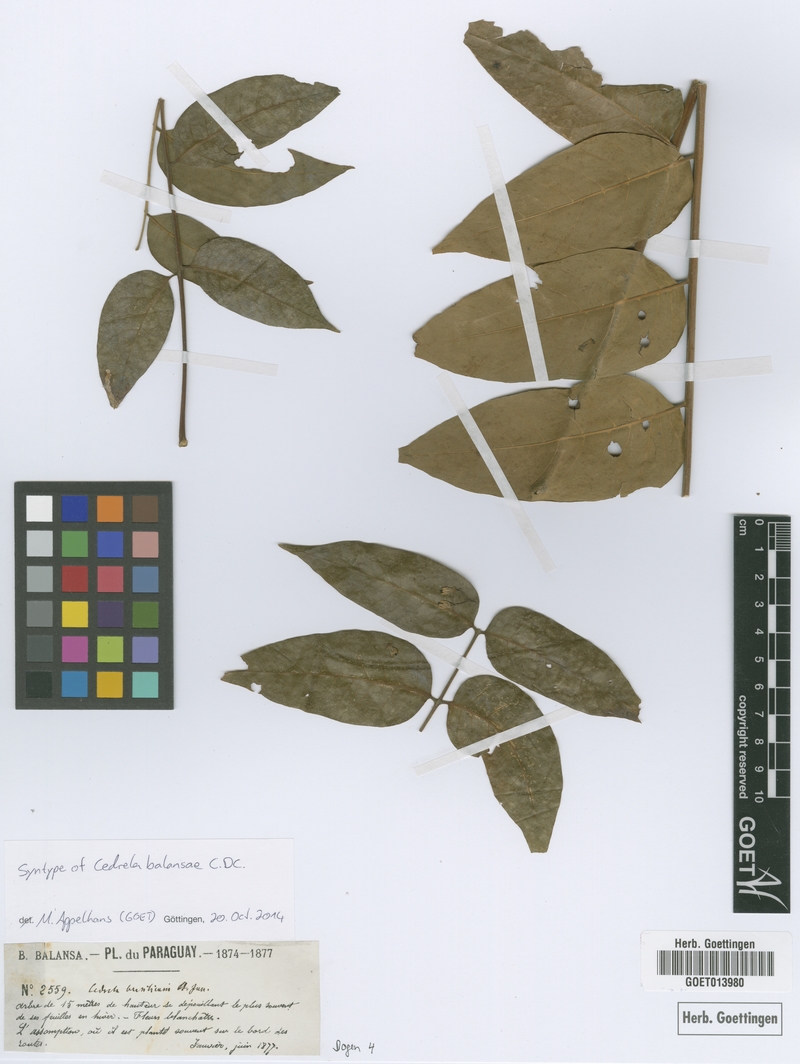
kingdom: Plantae
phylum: Tracheophyta
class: Magnoliopsida
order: Sapindales
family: Meliaceae
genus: Cedrela
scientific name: Cedrela balansae
